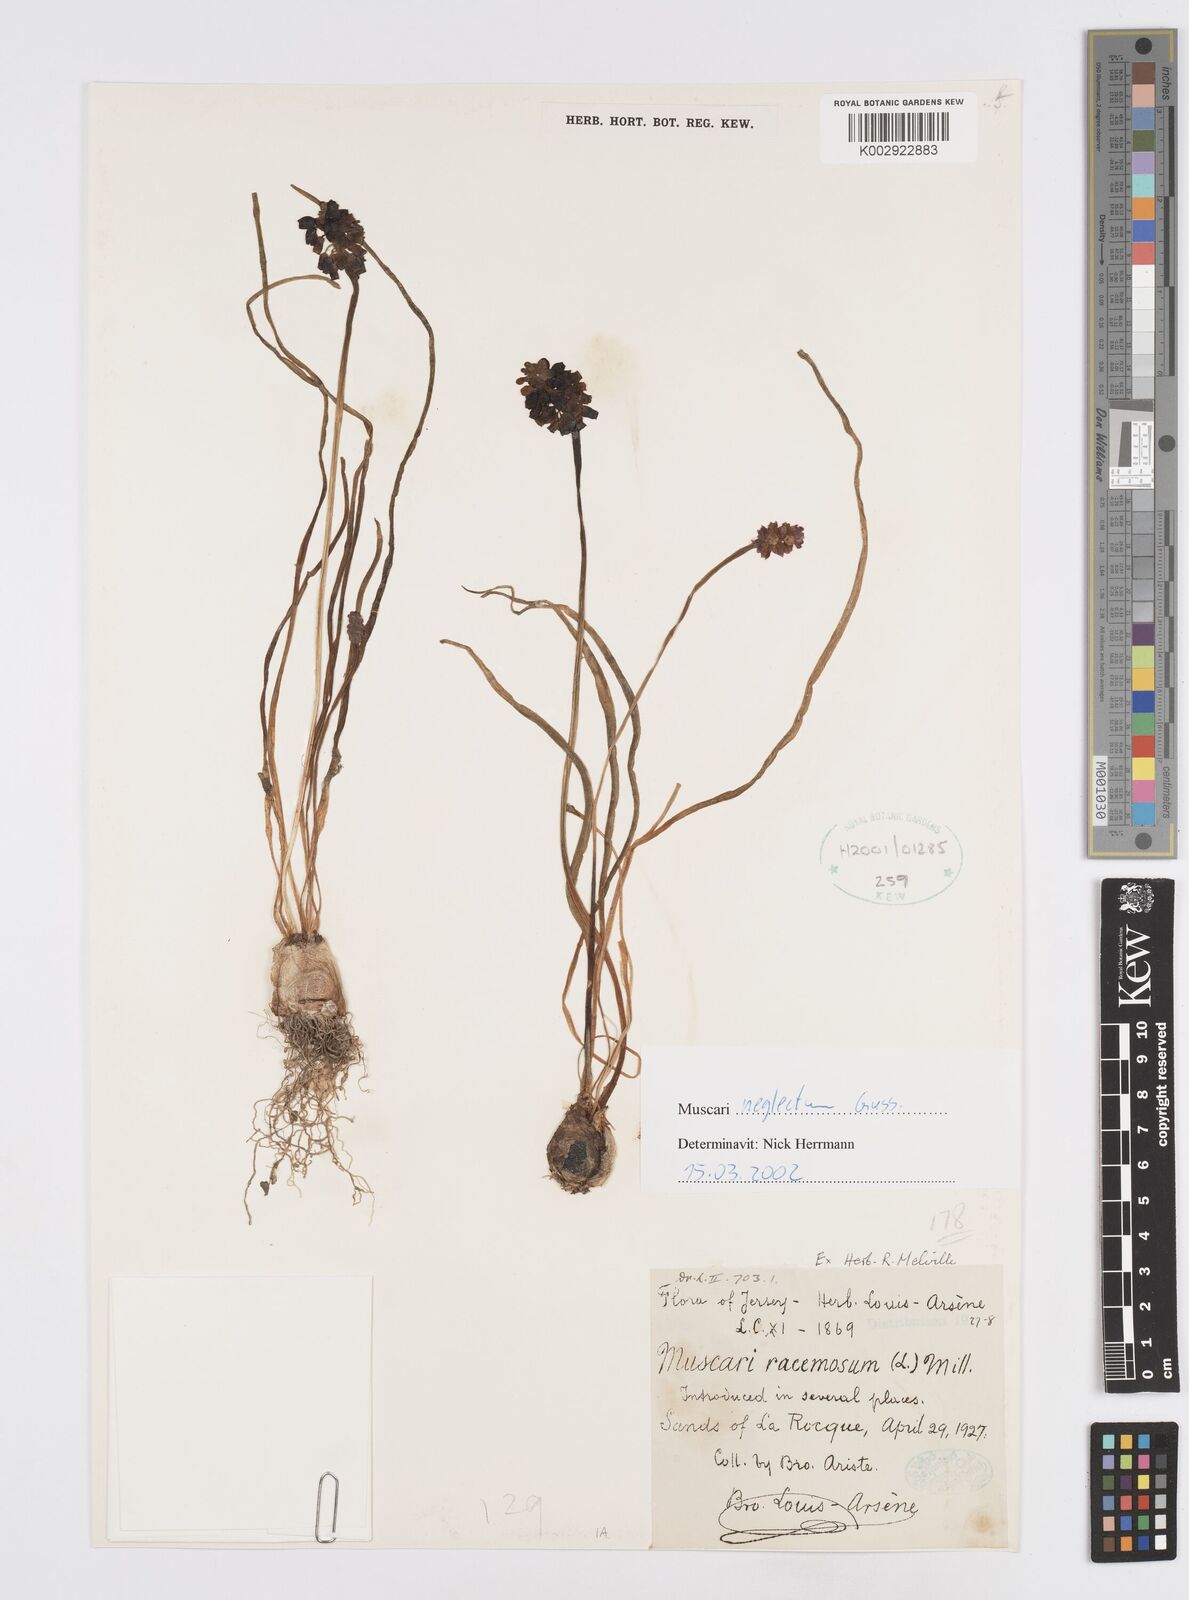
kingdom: Plantae
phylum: Tracheophyta
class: Liliopsida
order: Asparagales
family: Asparagaceae
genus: Muscarimia
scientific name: Muscarimia muscari
